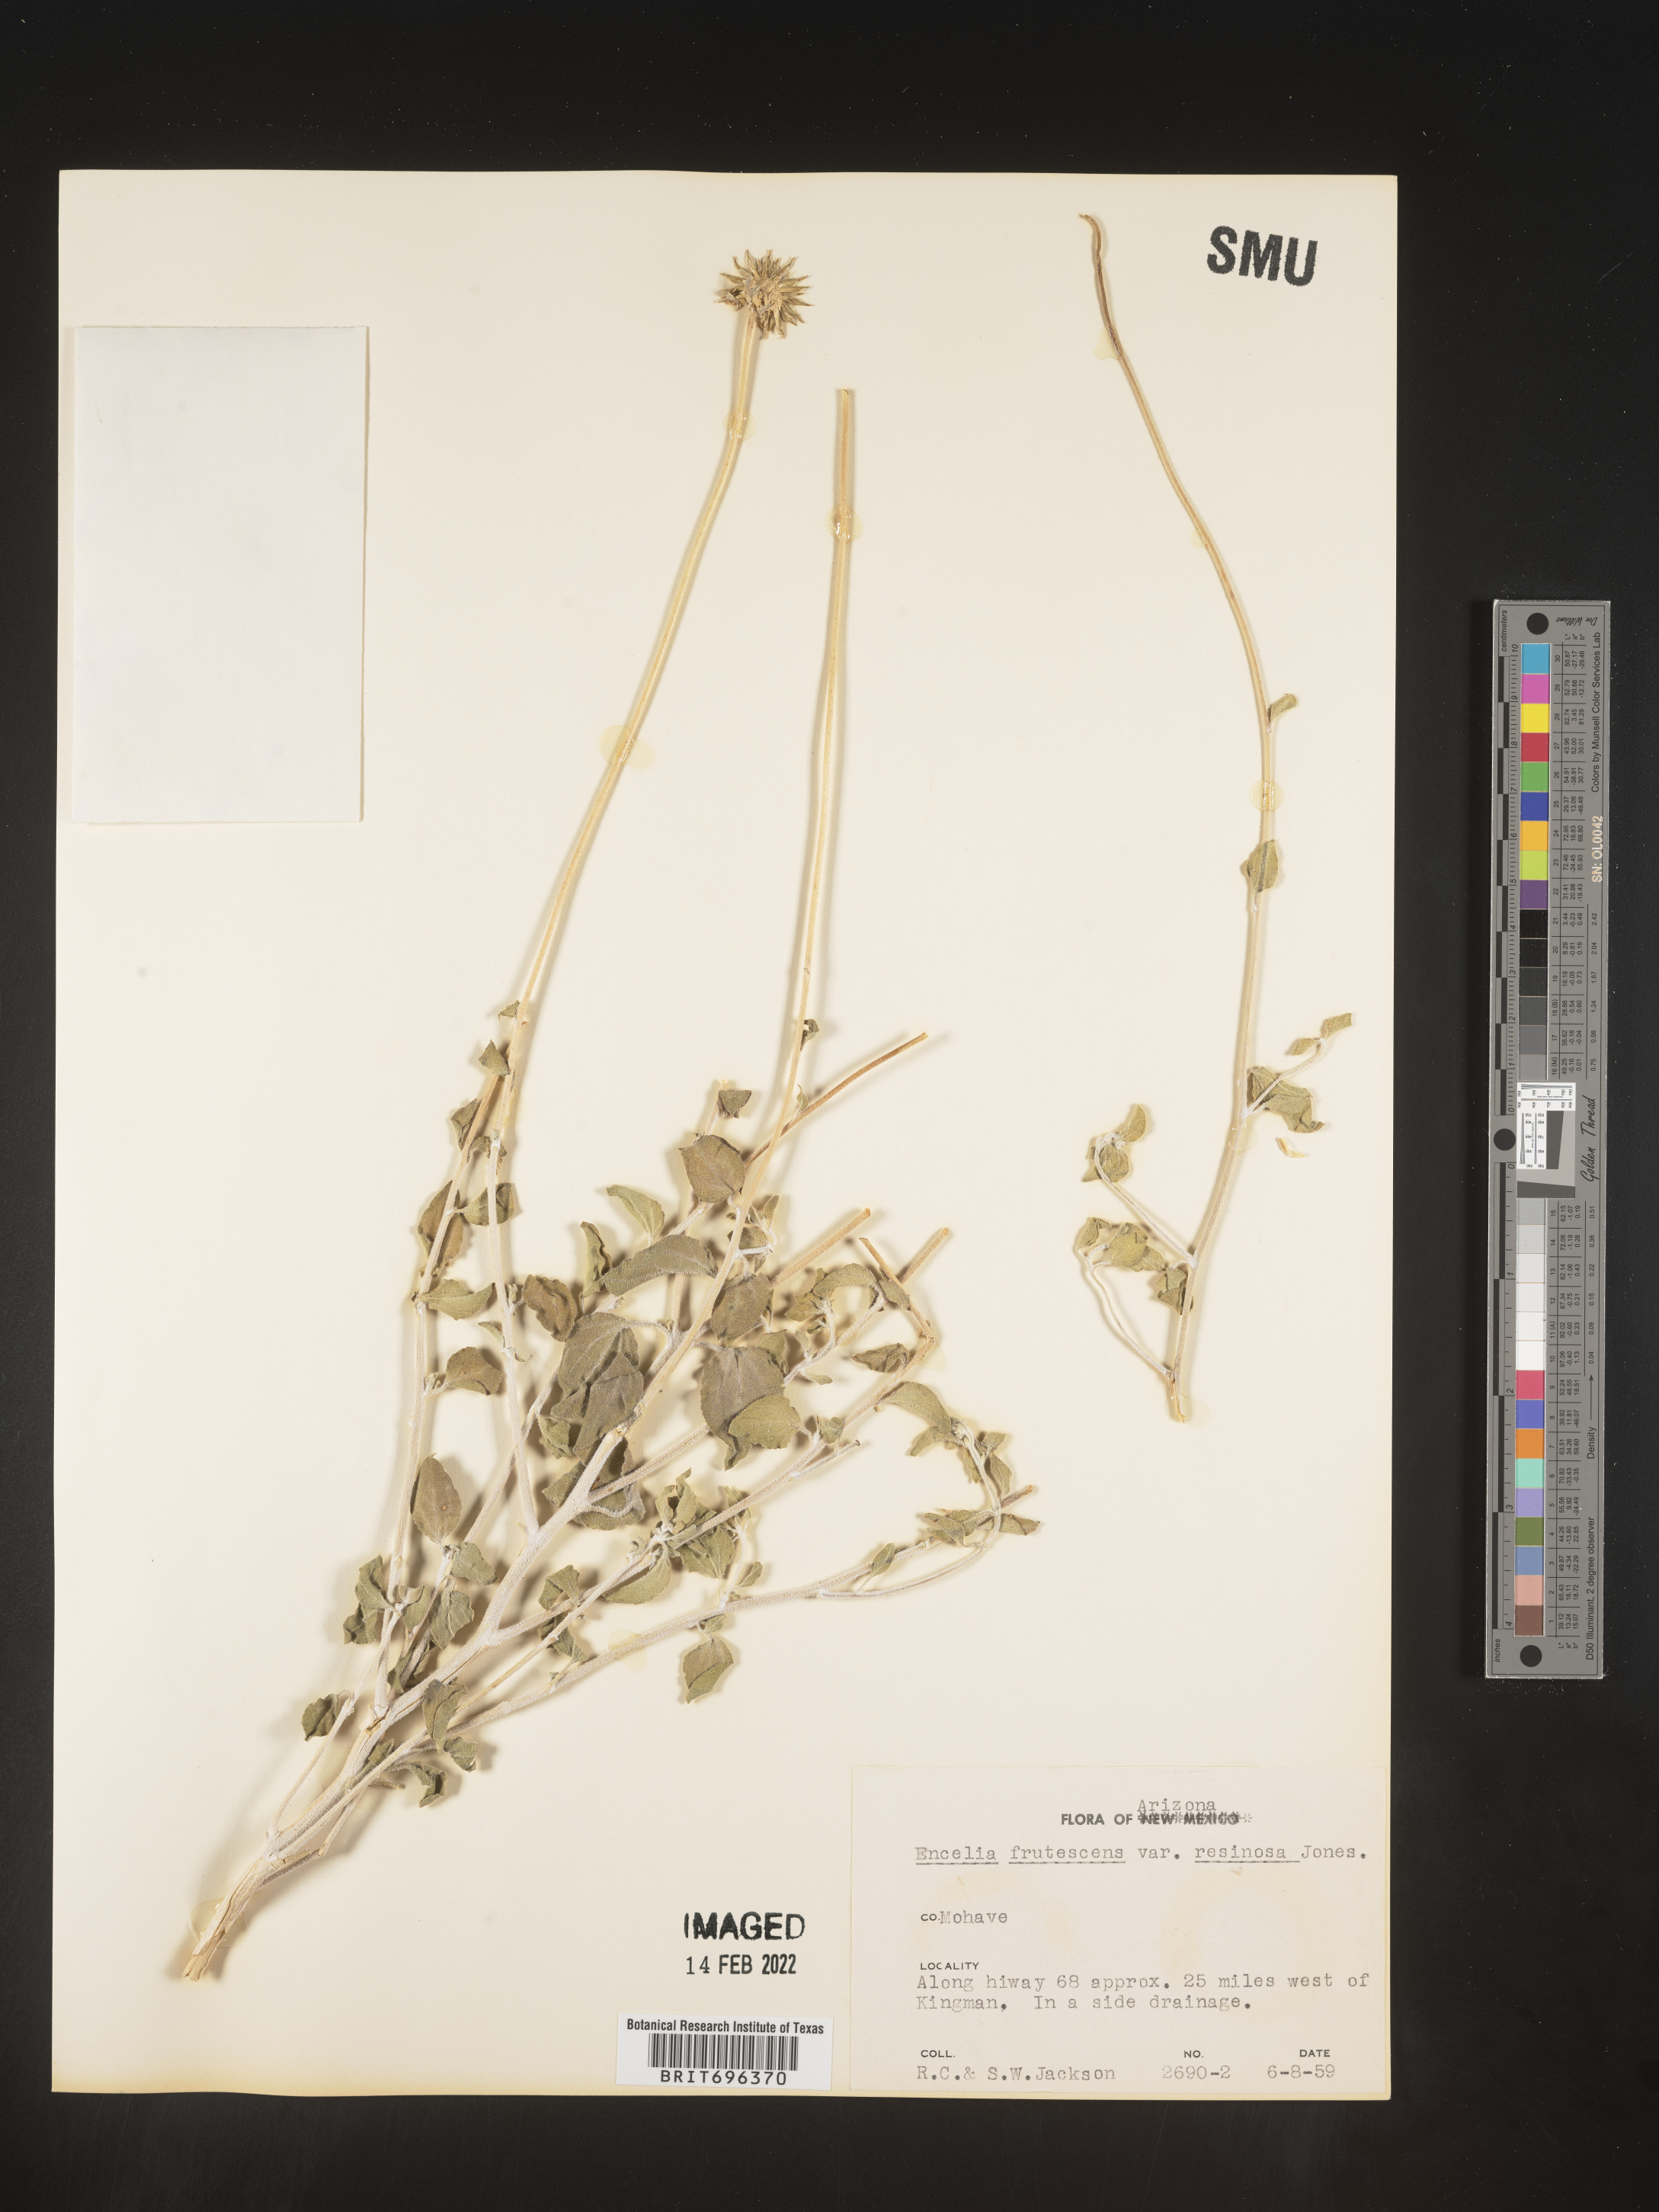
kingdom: Plantae
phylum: Tracheophyta
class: Magnoliopsida
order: Asterales
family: Asteraceae
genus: Encelia
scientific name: Encelia frutescens
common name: Bush encelia
